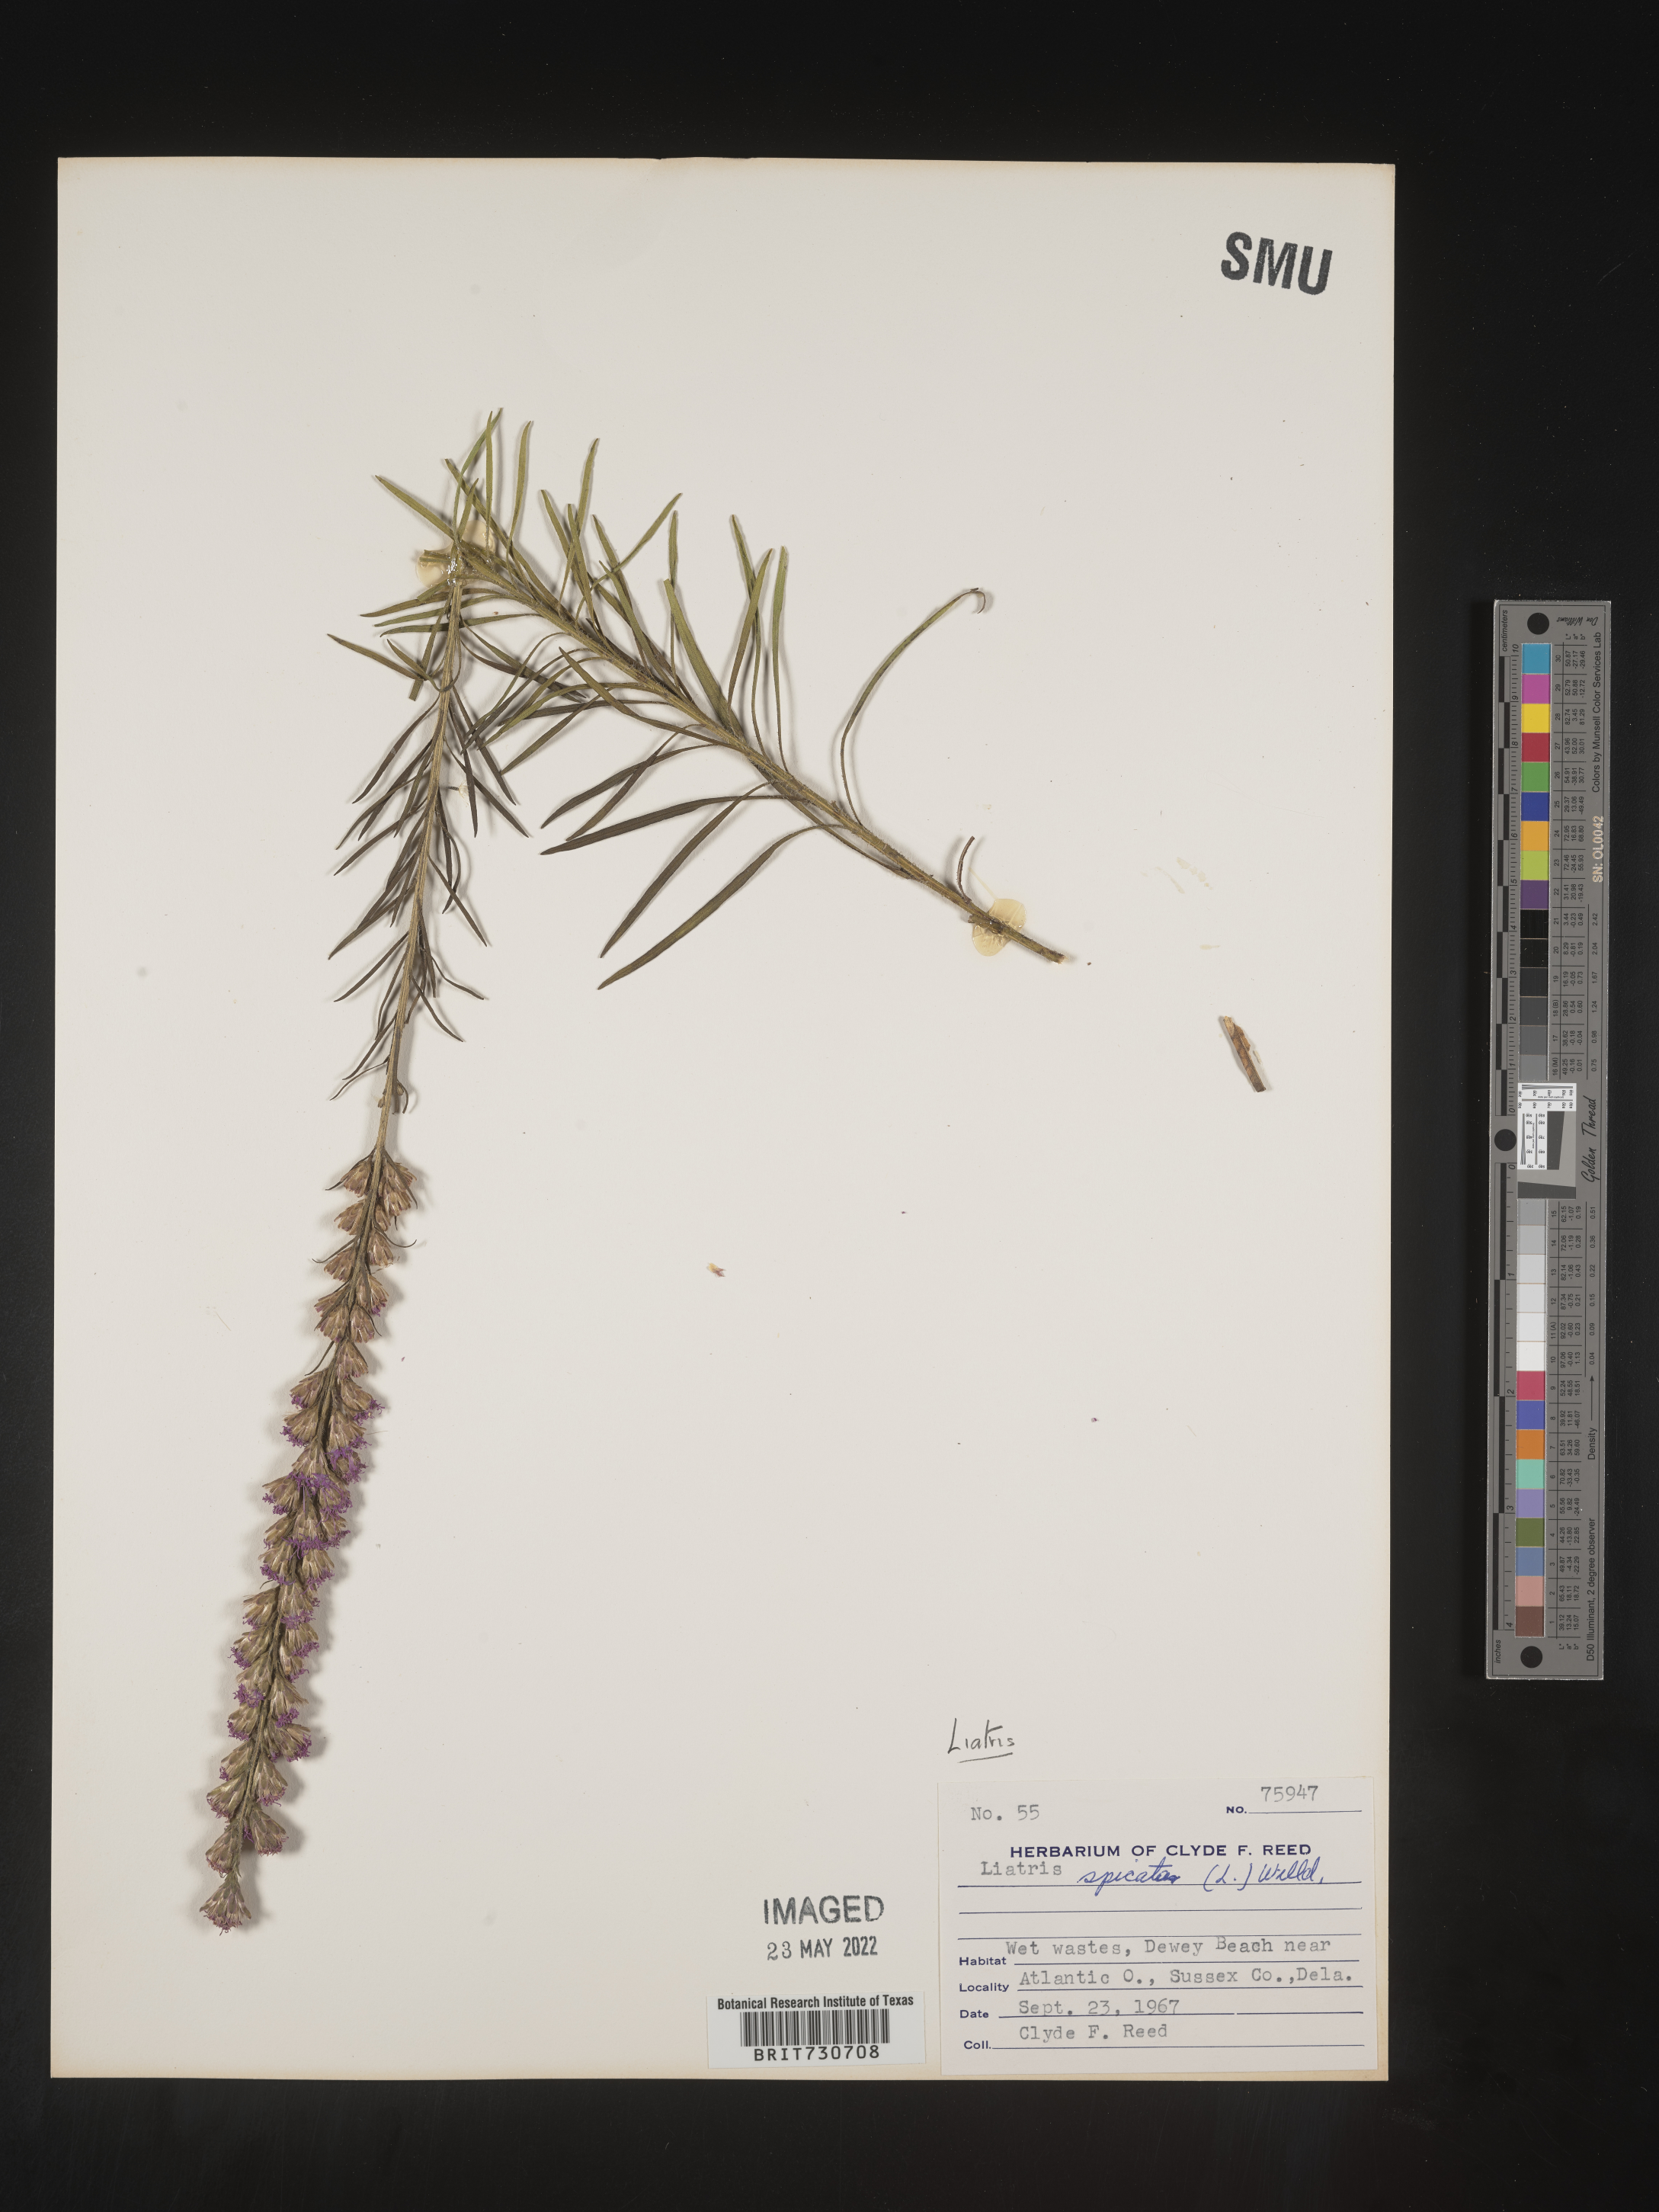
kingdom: Plantae
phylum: Tracheophyta
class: Magnoliopsida
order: Asterales
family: Asteraceae
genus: Liatris
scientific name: Liatris pilosa
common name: Grass-leaf gayfeather
